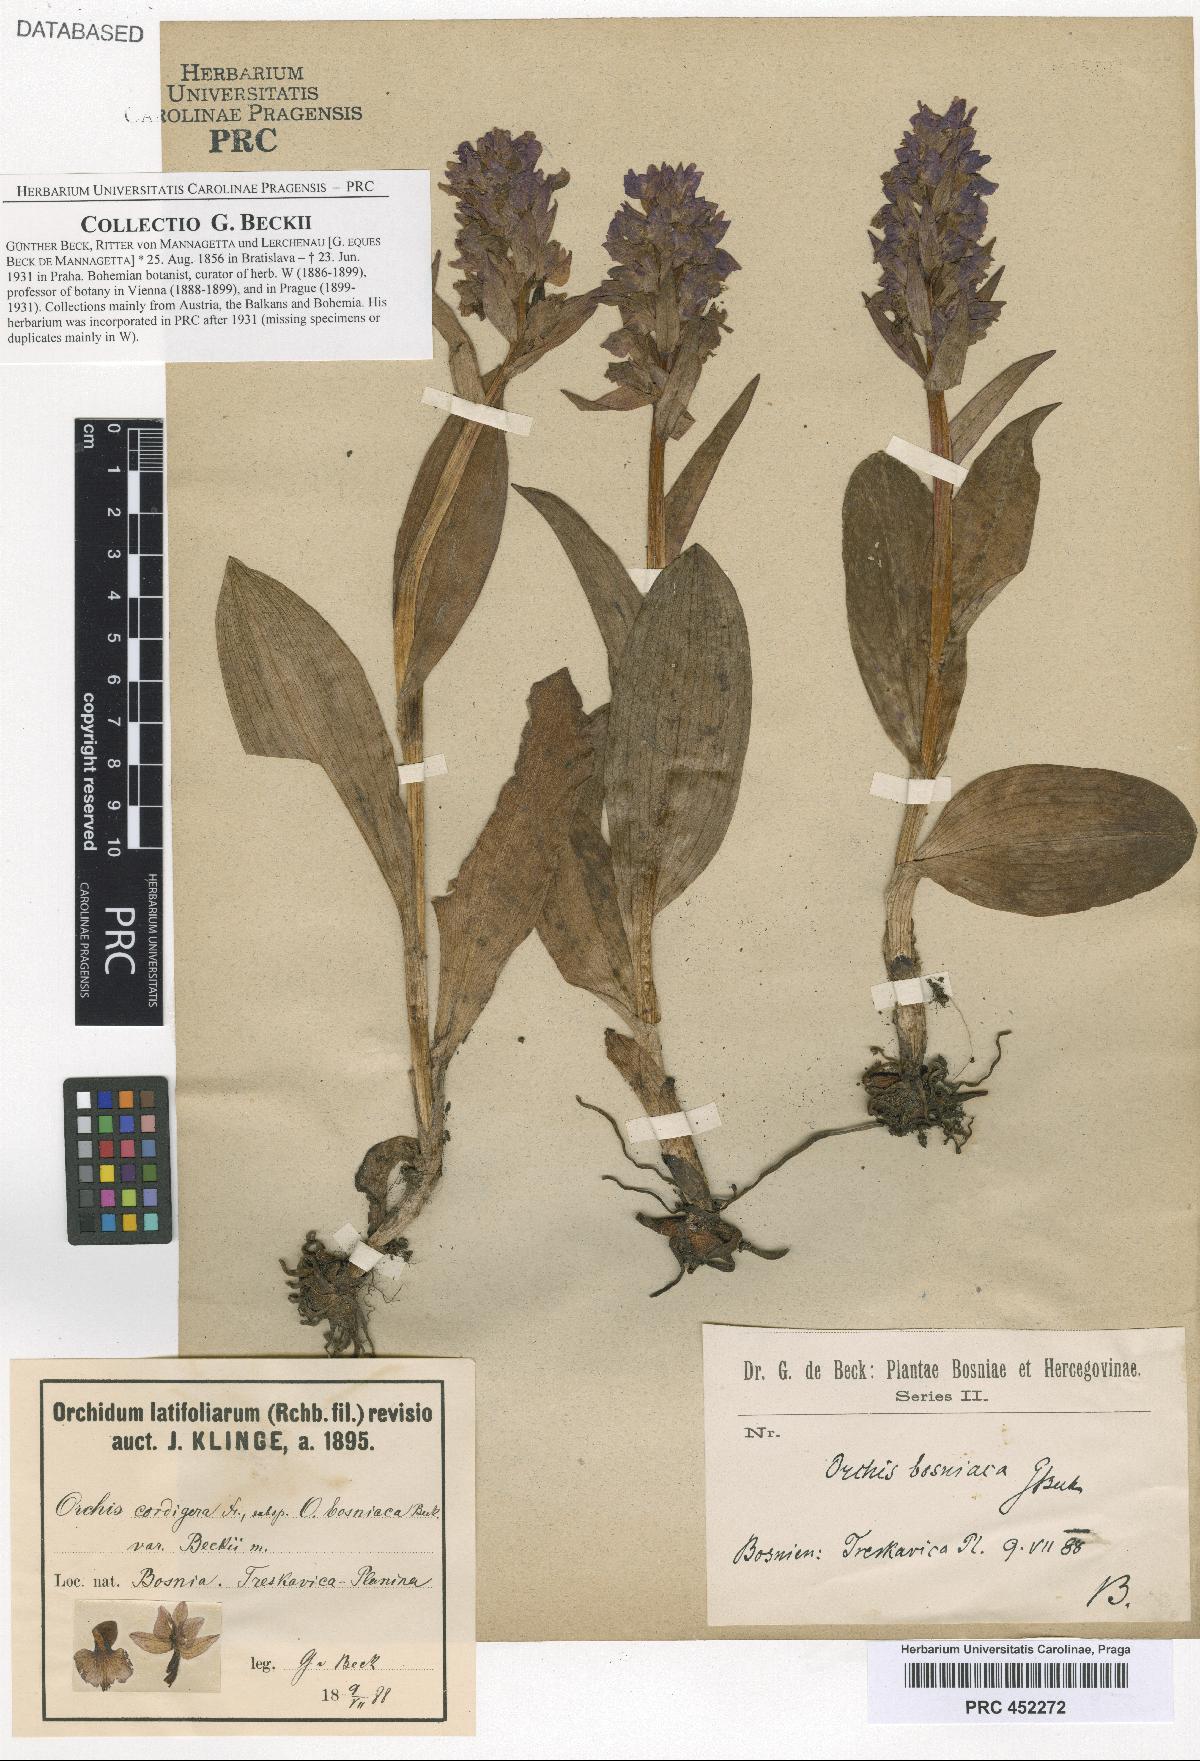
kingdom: Plantae
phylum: Tracheophyta
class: Liliopsida
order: Asparagales
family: Orchidaceae
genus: Dactylorhiza
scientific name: Dactylorhiza majalis
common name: Marsh orchid
